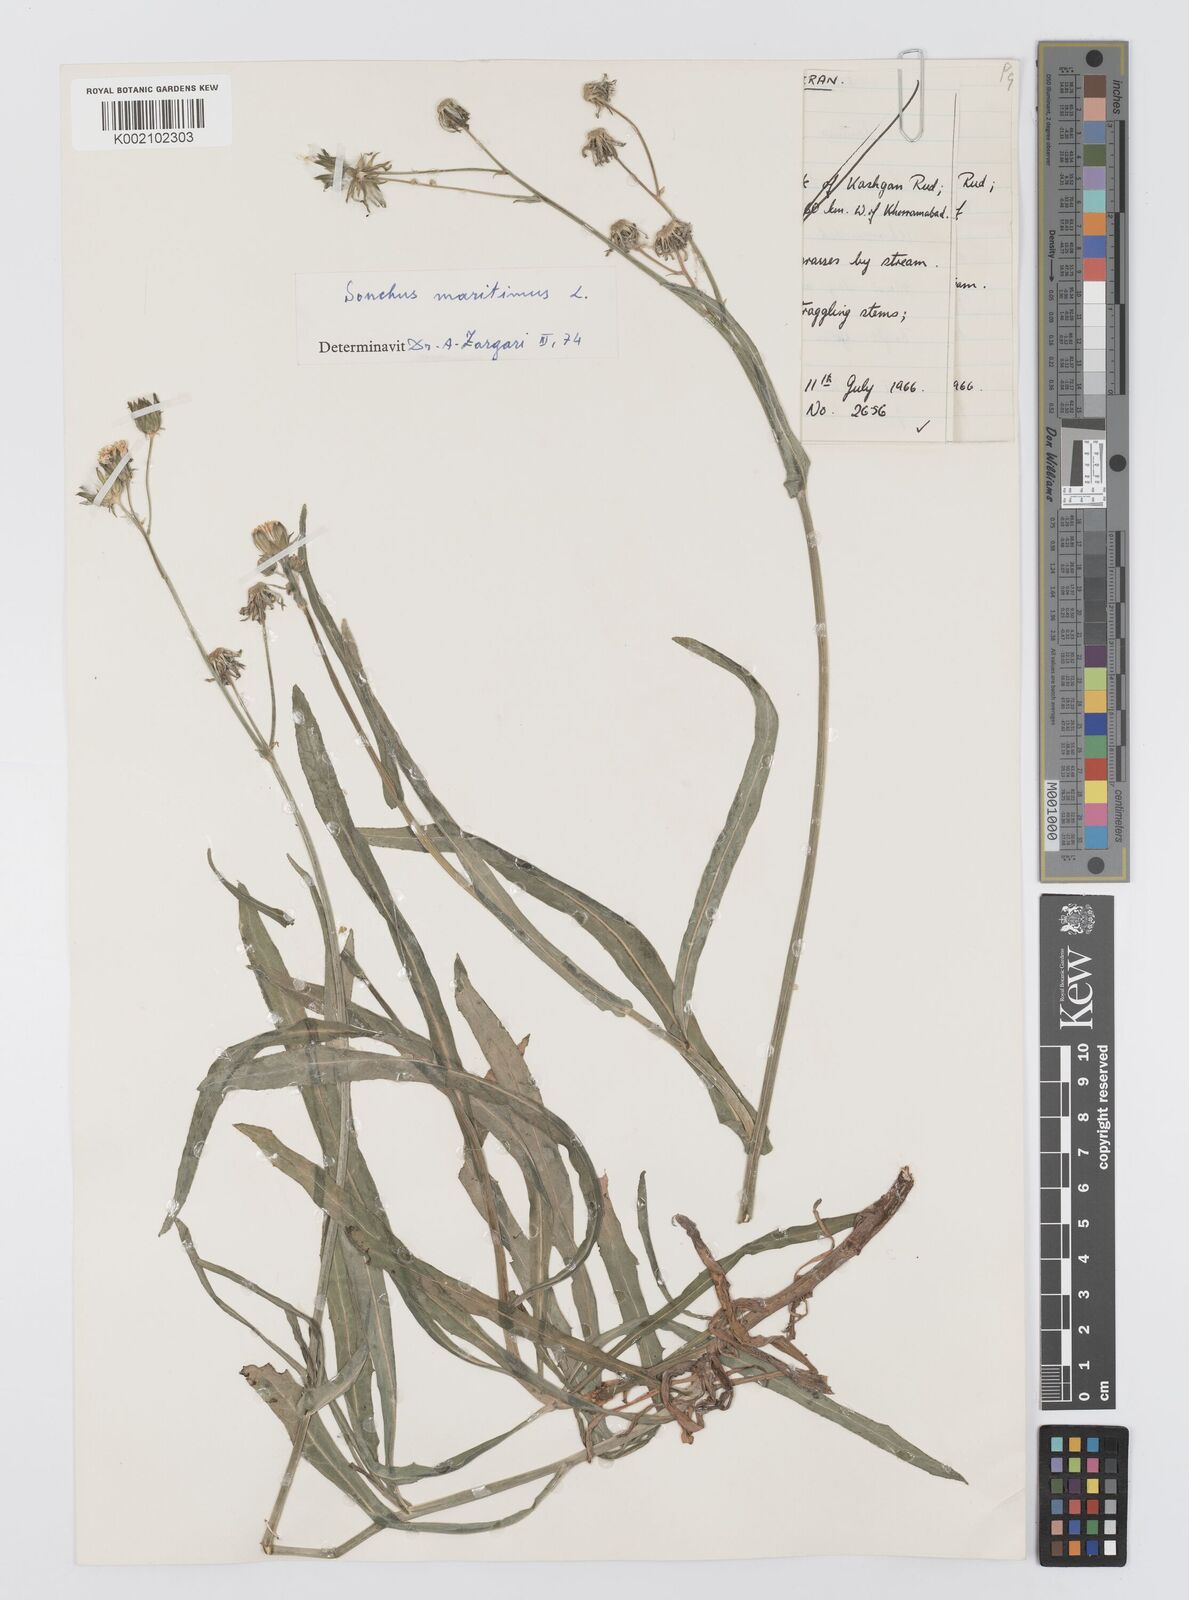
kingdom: Plantae
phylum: Tracheophyta
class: Magnoliopsida
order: Asterales
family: Asteraceae
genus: Sonchus
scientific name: Sonchus maritimus
